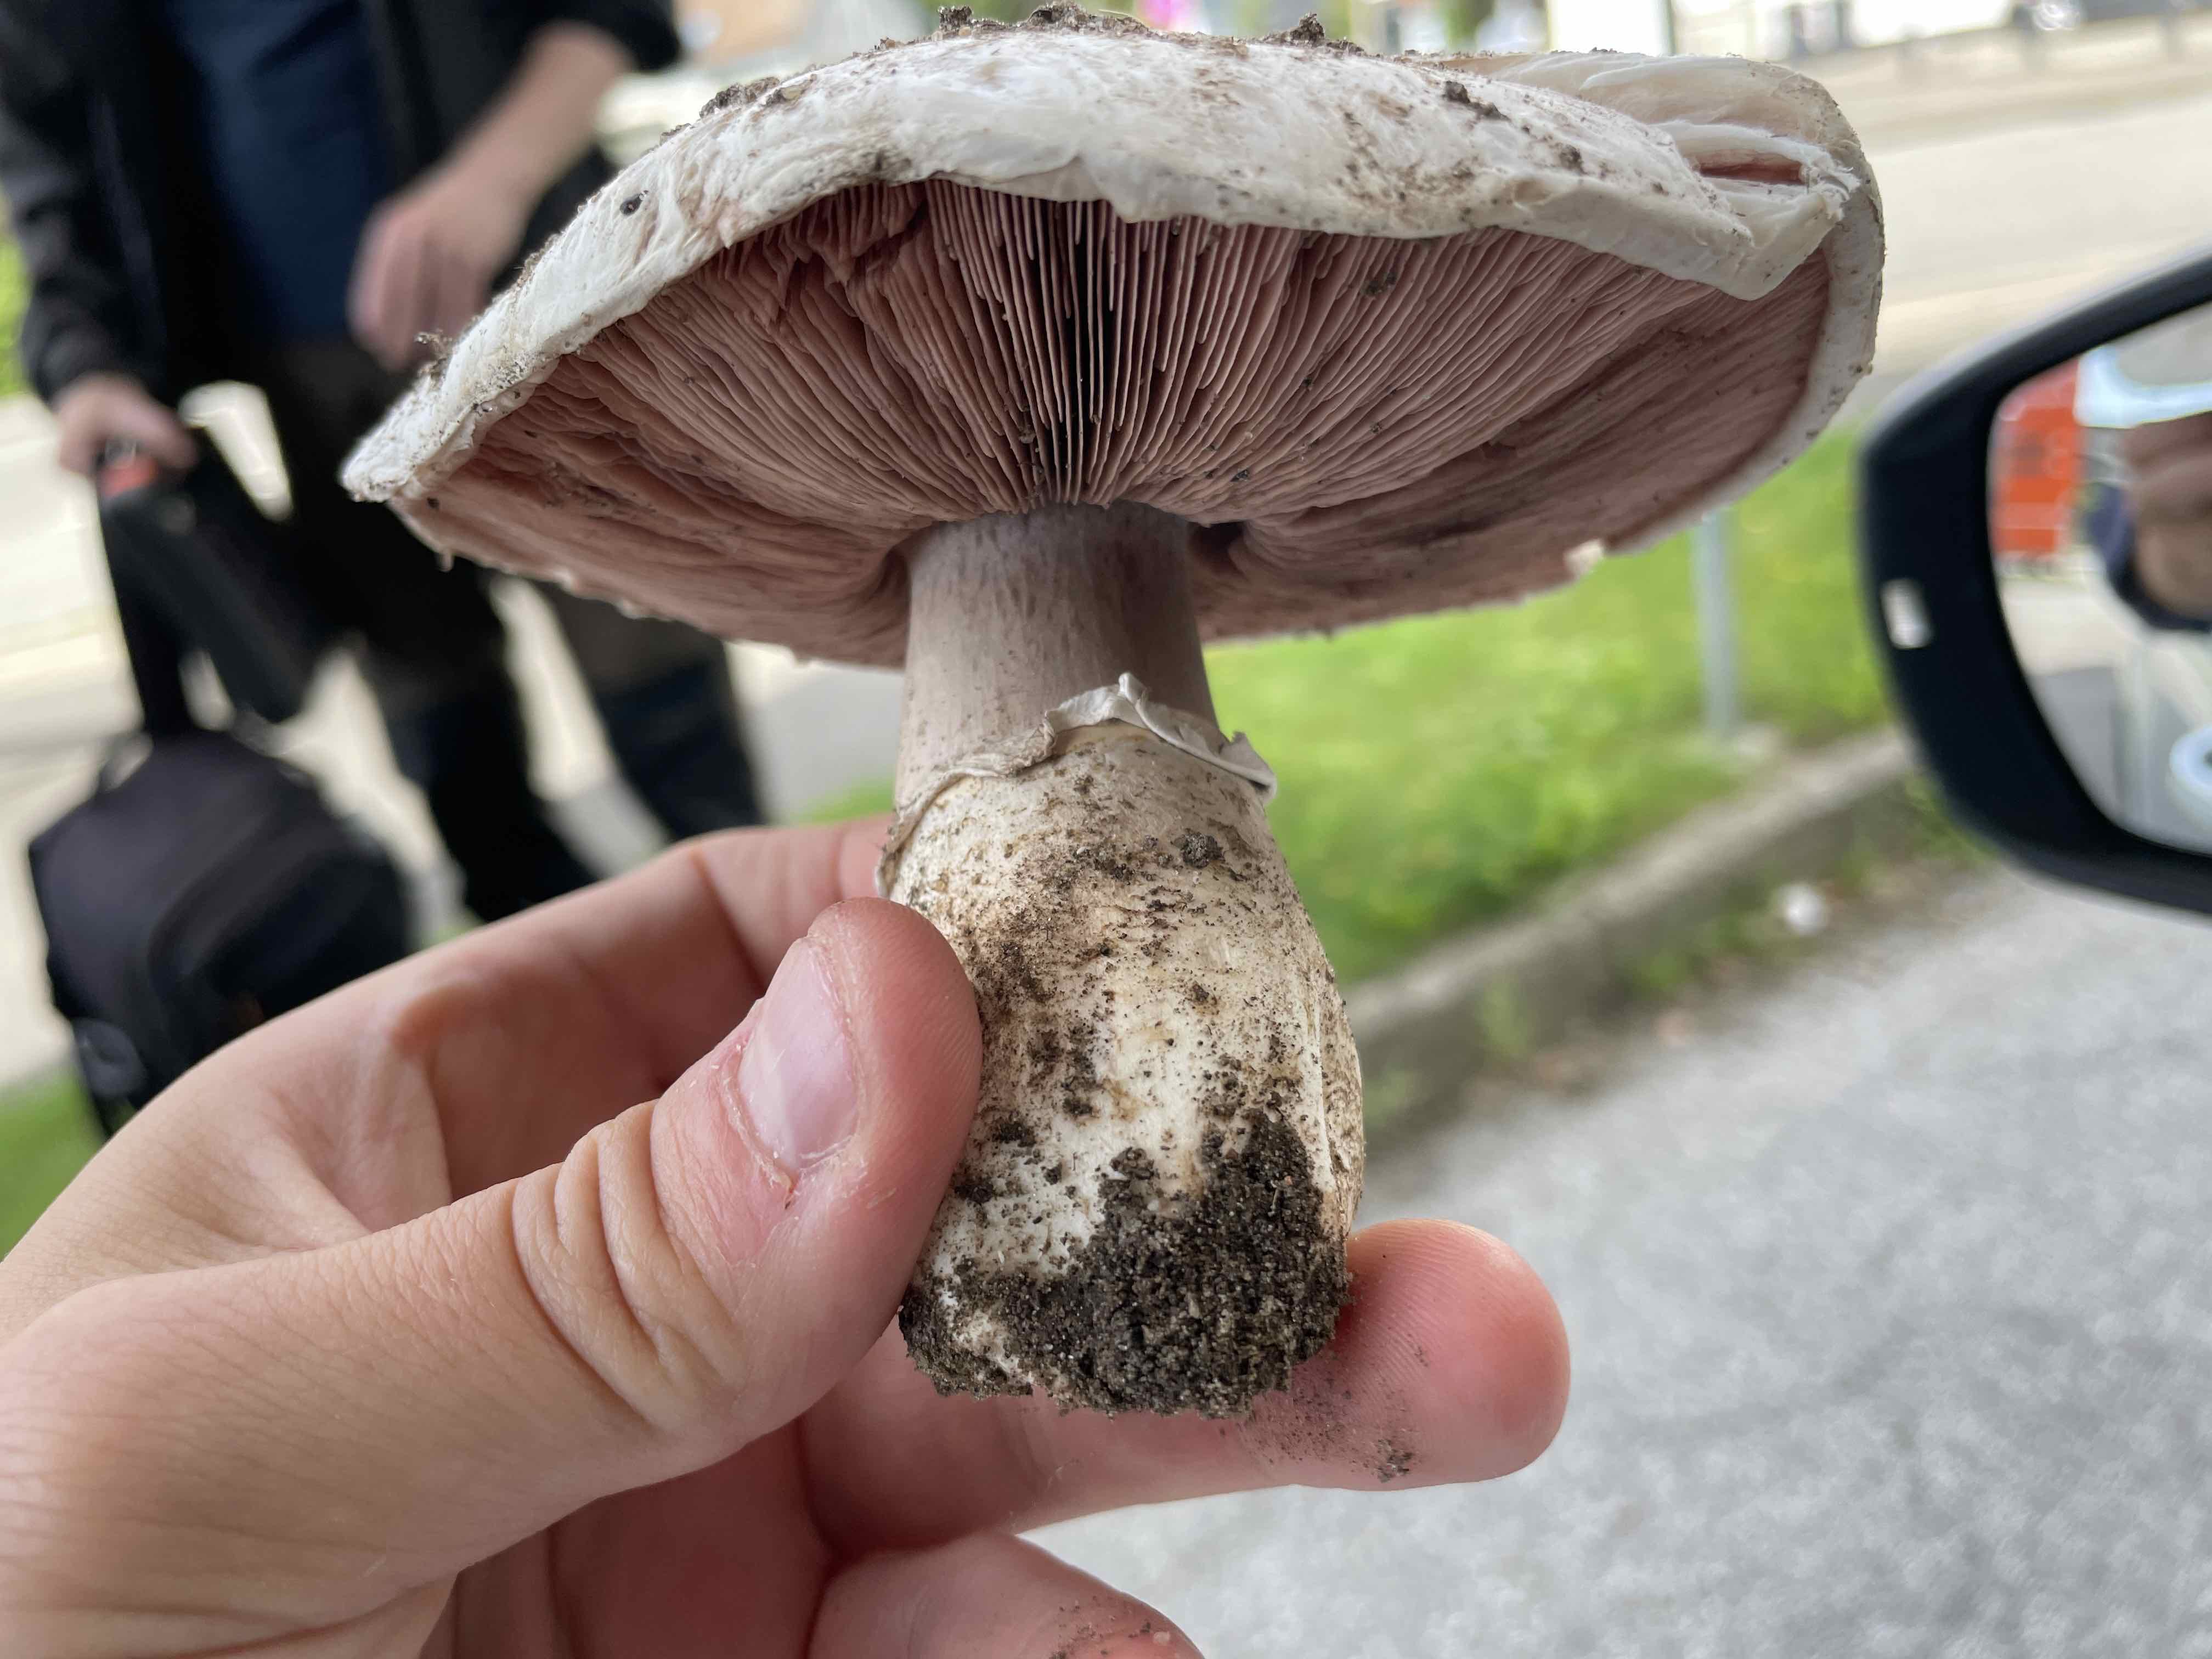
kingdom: Fungi
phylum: Basidiomycota
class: Agaricomycetes
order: Agaricales
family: Agaricaceae
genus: Agaricus
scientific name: Agaricus bernardii
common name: strandengs-champignon
